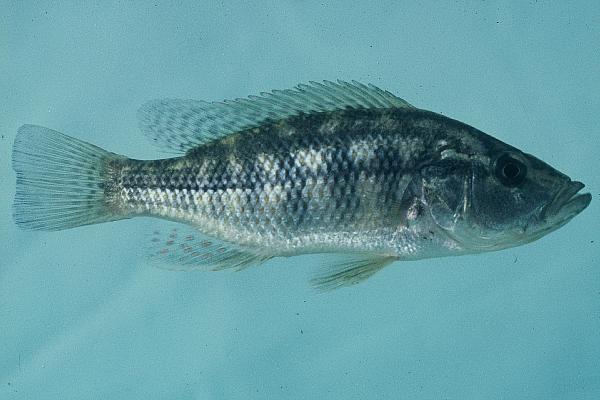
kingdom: Animalia
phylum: Chordata
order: Perciformes
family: Cichlidae
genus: Serranochromis
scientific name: Serranochromis meridianus
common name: Lowveld largemouth
